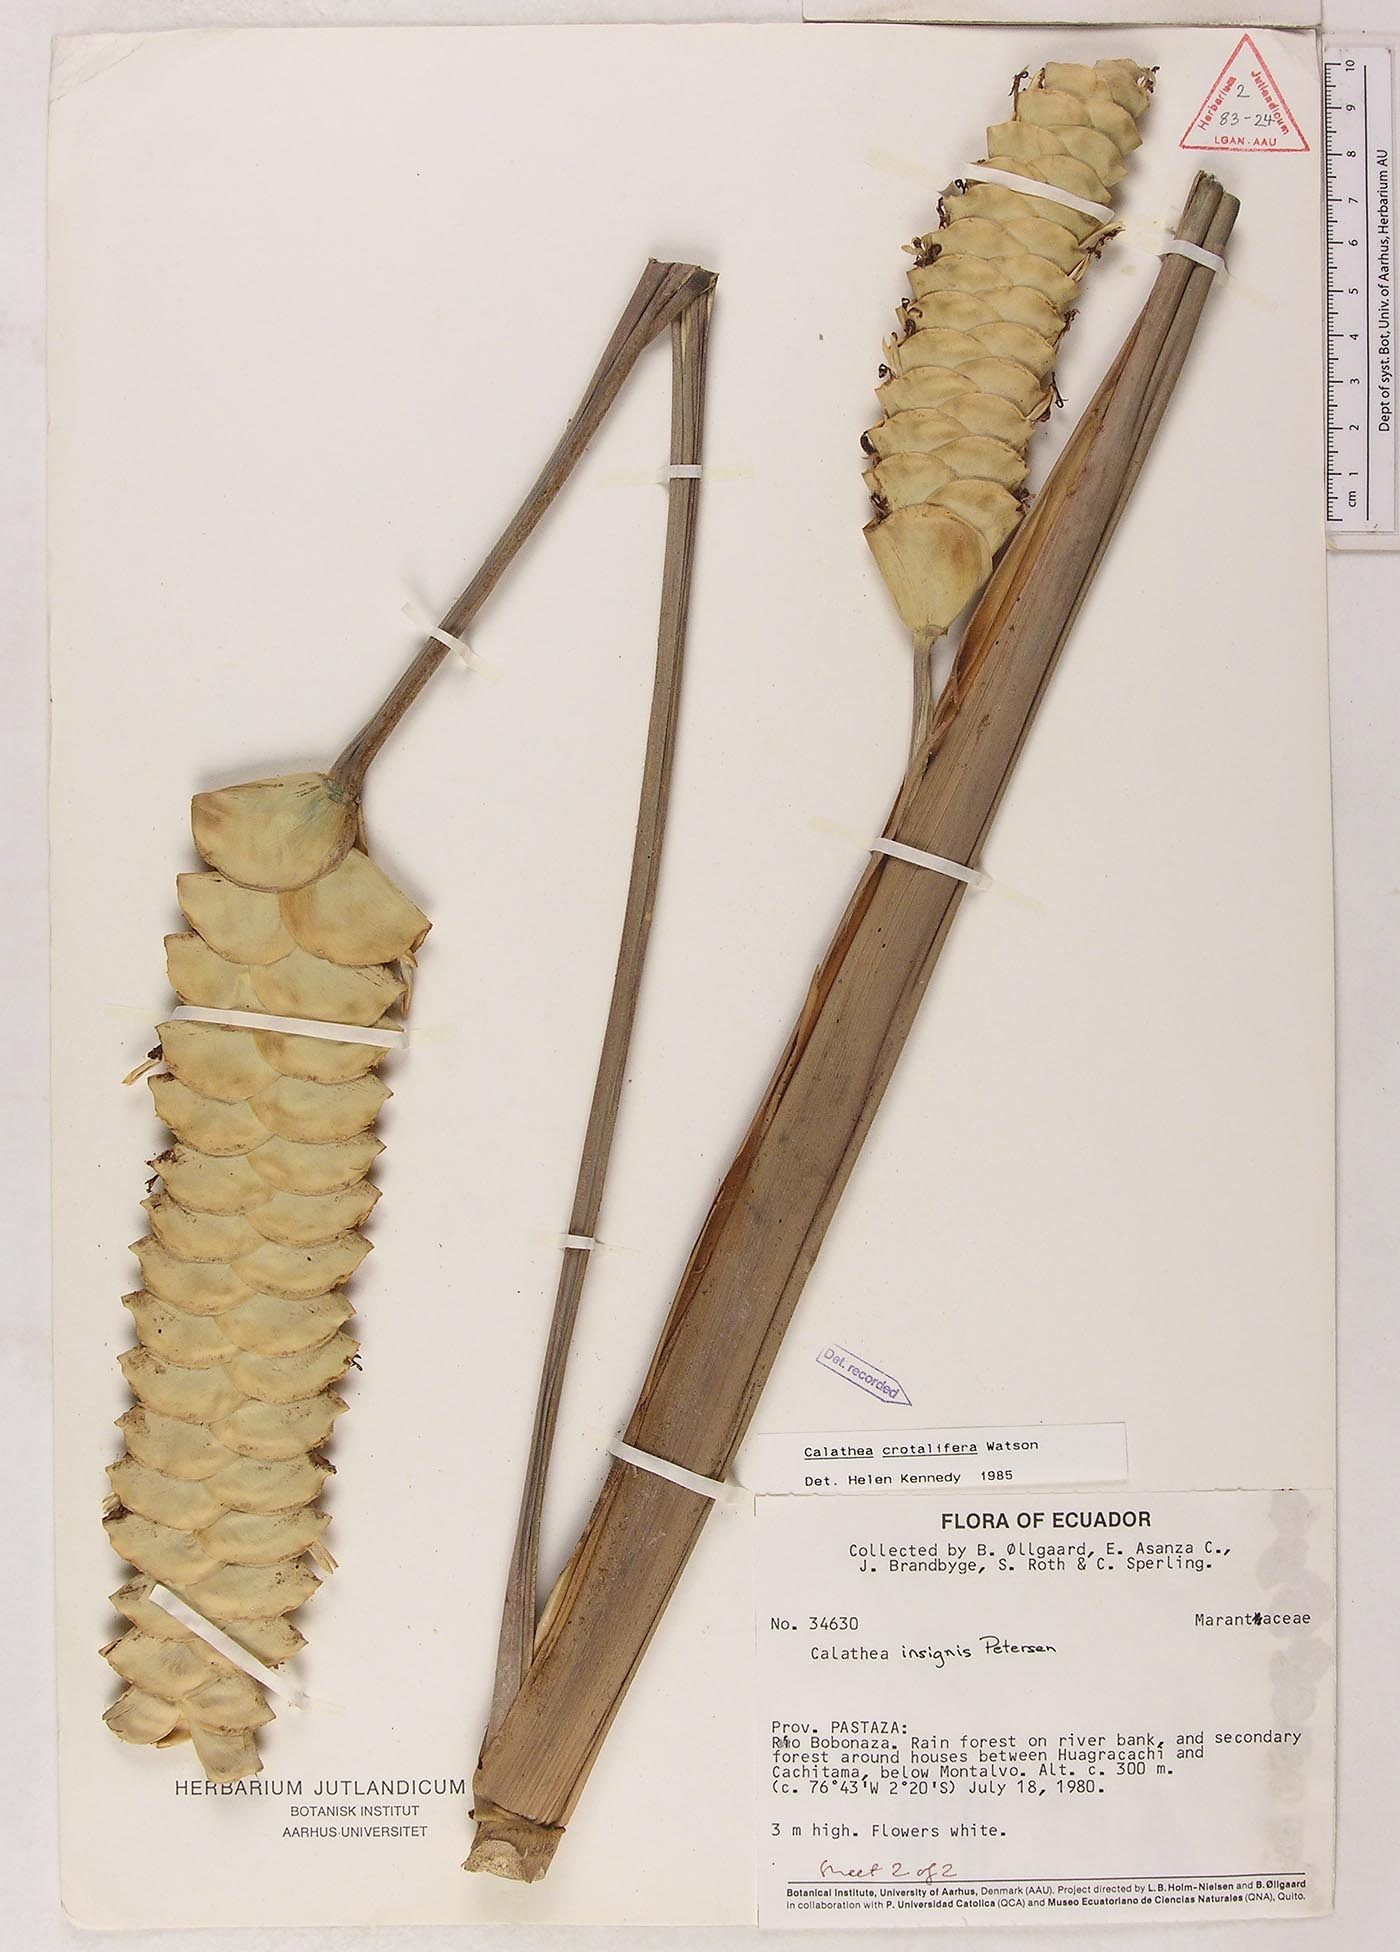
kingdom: Plantae
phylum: Tracheophyta
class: Liliopsida
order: Zingiberales
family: Marantaceae
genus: Calathea
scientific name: Calathea crotalifera
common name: Rattlesnake plant
